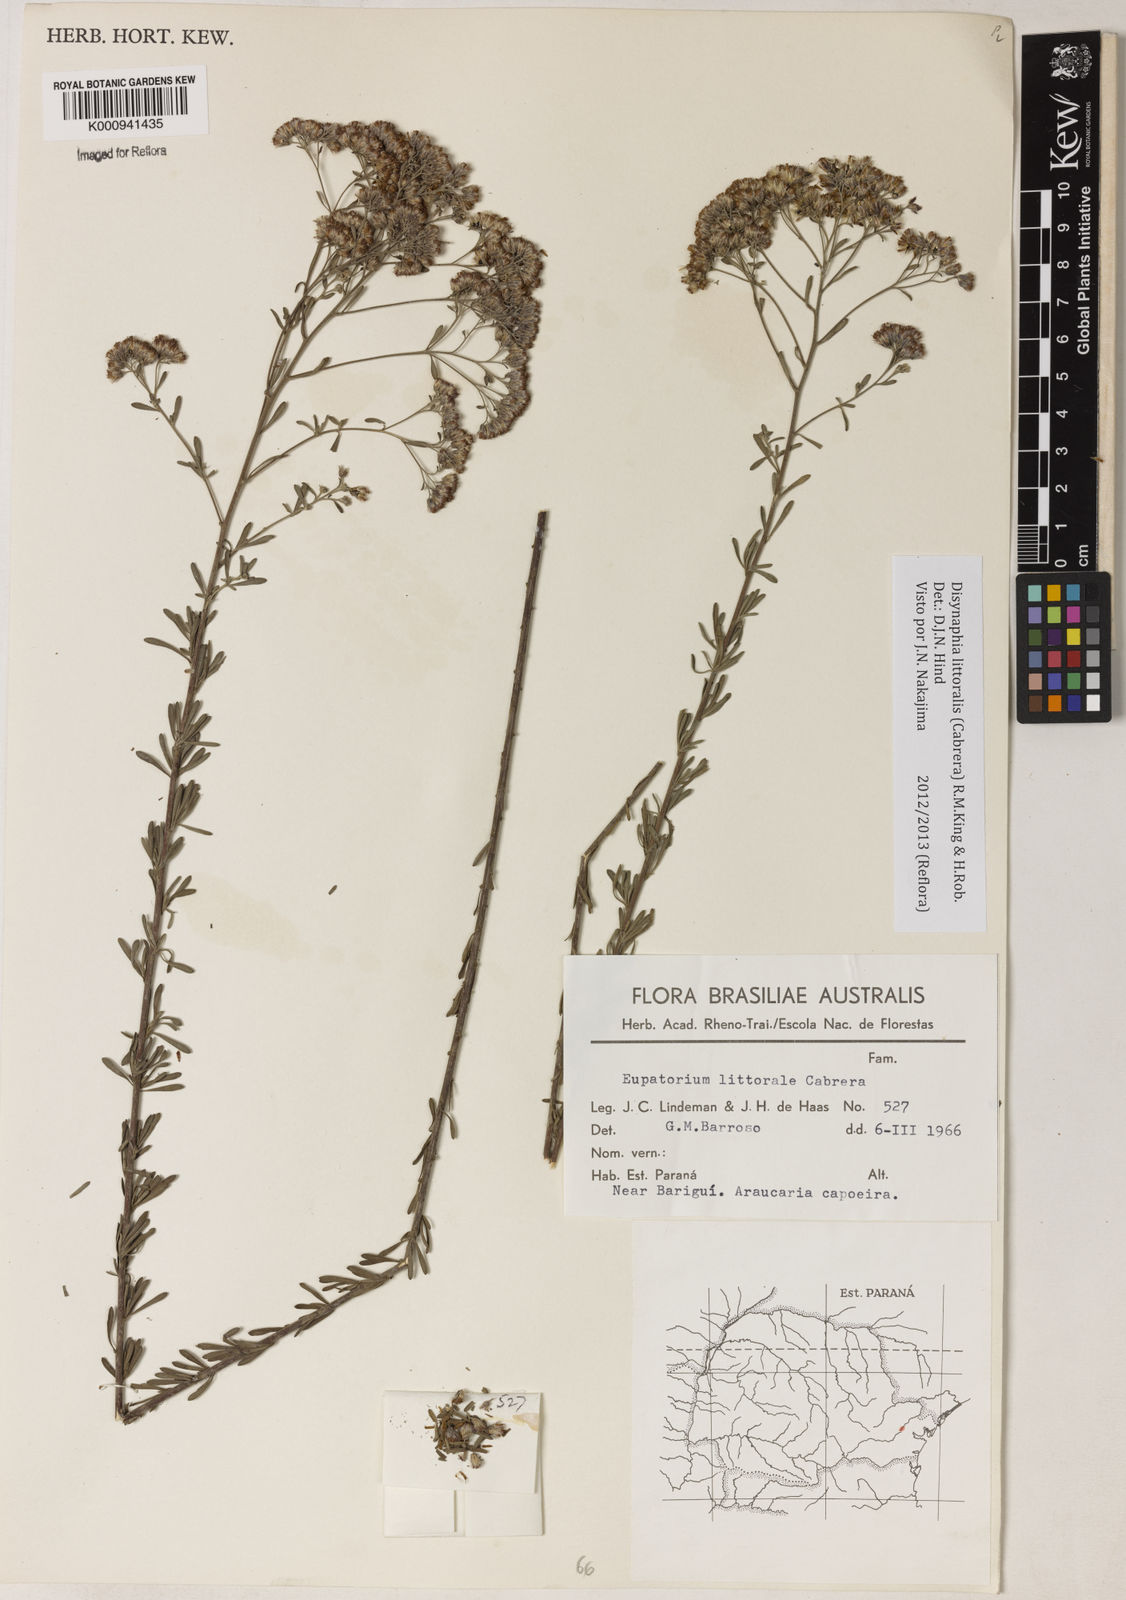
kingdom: Plantae
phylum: Tracheophyta
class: Magnoliopsida
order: Asterales
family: Asteraceae
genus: Disynaphia
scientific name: Disynaphia littoralis
